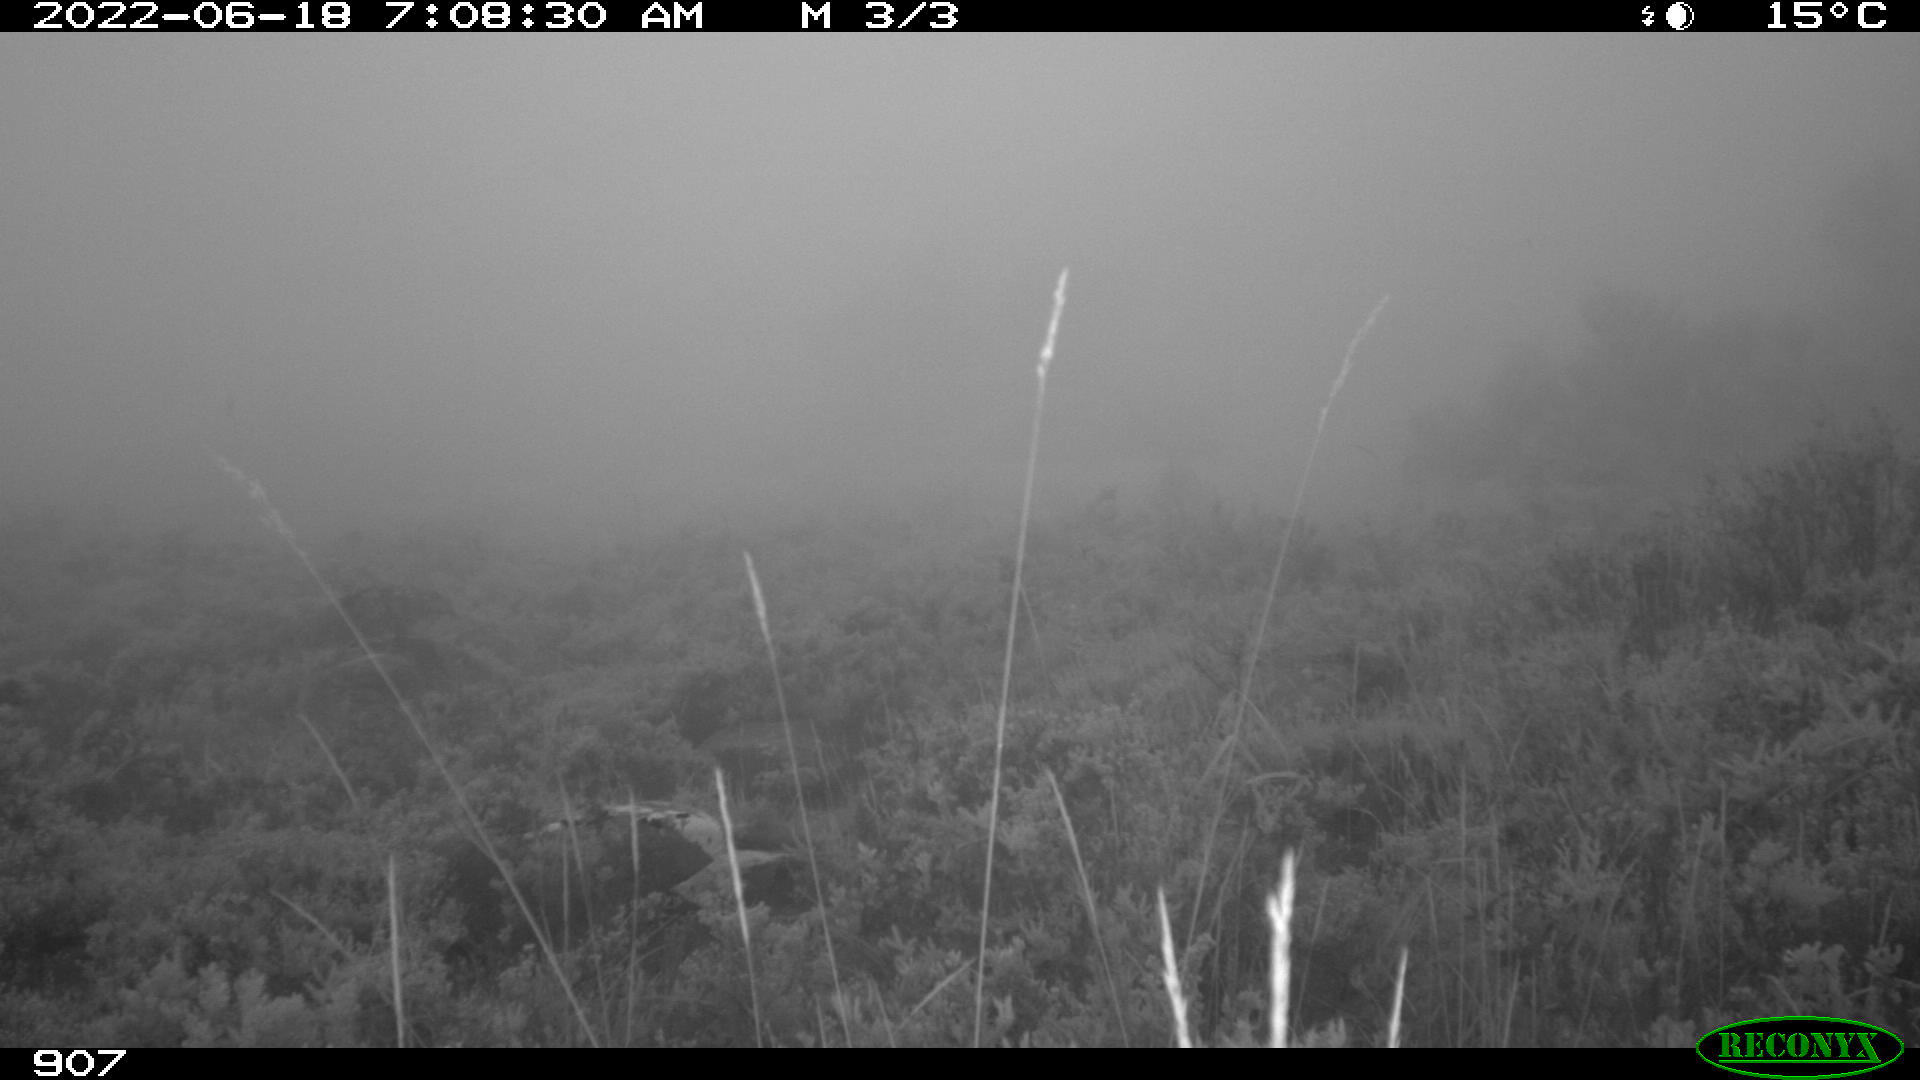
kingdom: Animalia
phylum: Chordata
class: Mammalia
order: Artiodactyla
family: Bovidae
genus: Bos
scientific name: Bos taurus
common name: Domesticated cattle
